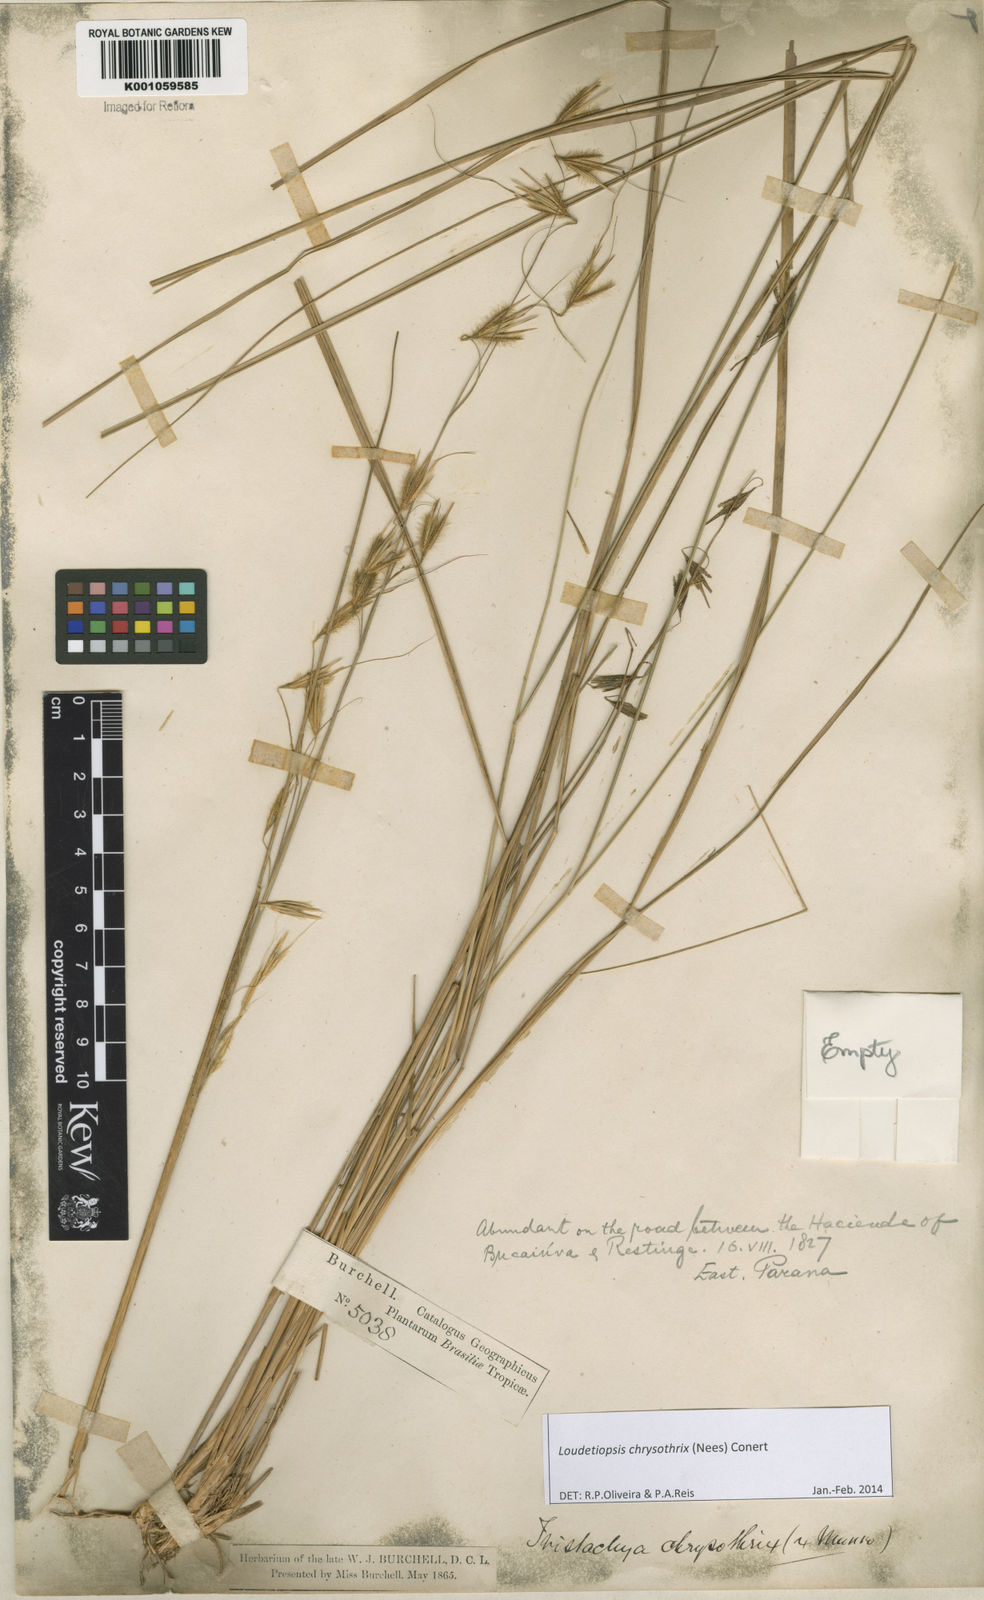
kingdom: Plantae
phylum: Tracheophyta
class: Liliopsida
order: Poales
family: Poaceae
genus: Loudetiopsis
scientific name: Loudetiopsis chrysothrix
